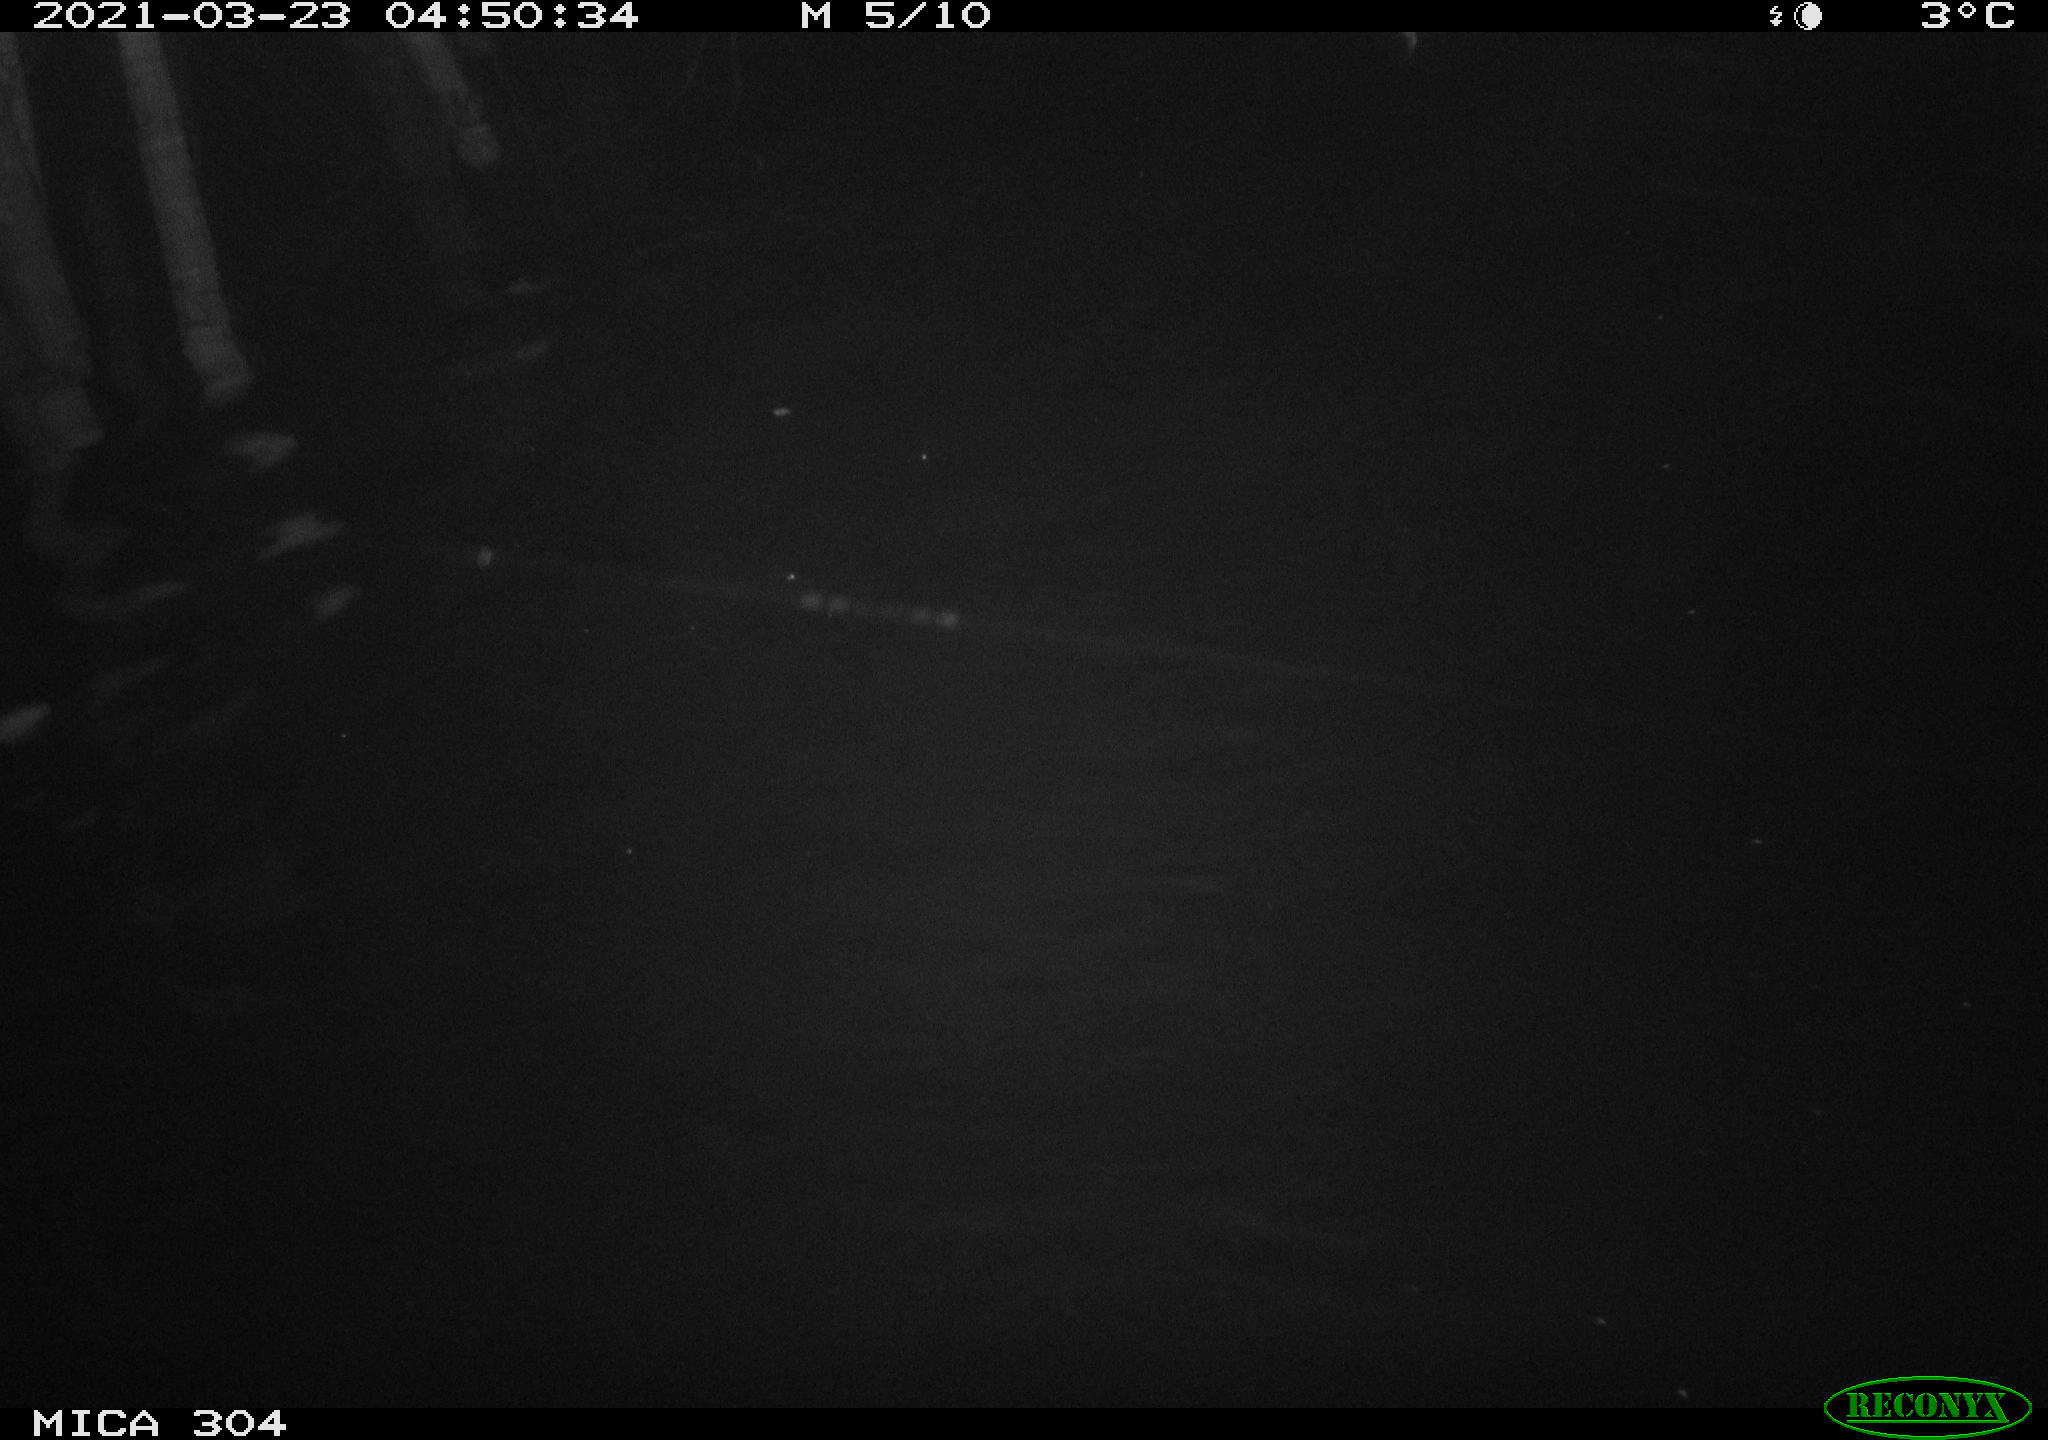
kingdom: Animalia
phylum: Chordata
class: Mammalia
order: Rodentia
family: Cricetidae
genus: Ondatra
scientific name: Ondatra zibethicus
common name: Muskrat
